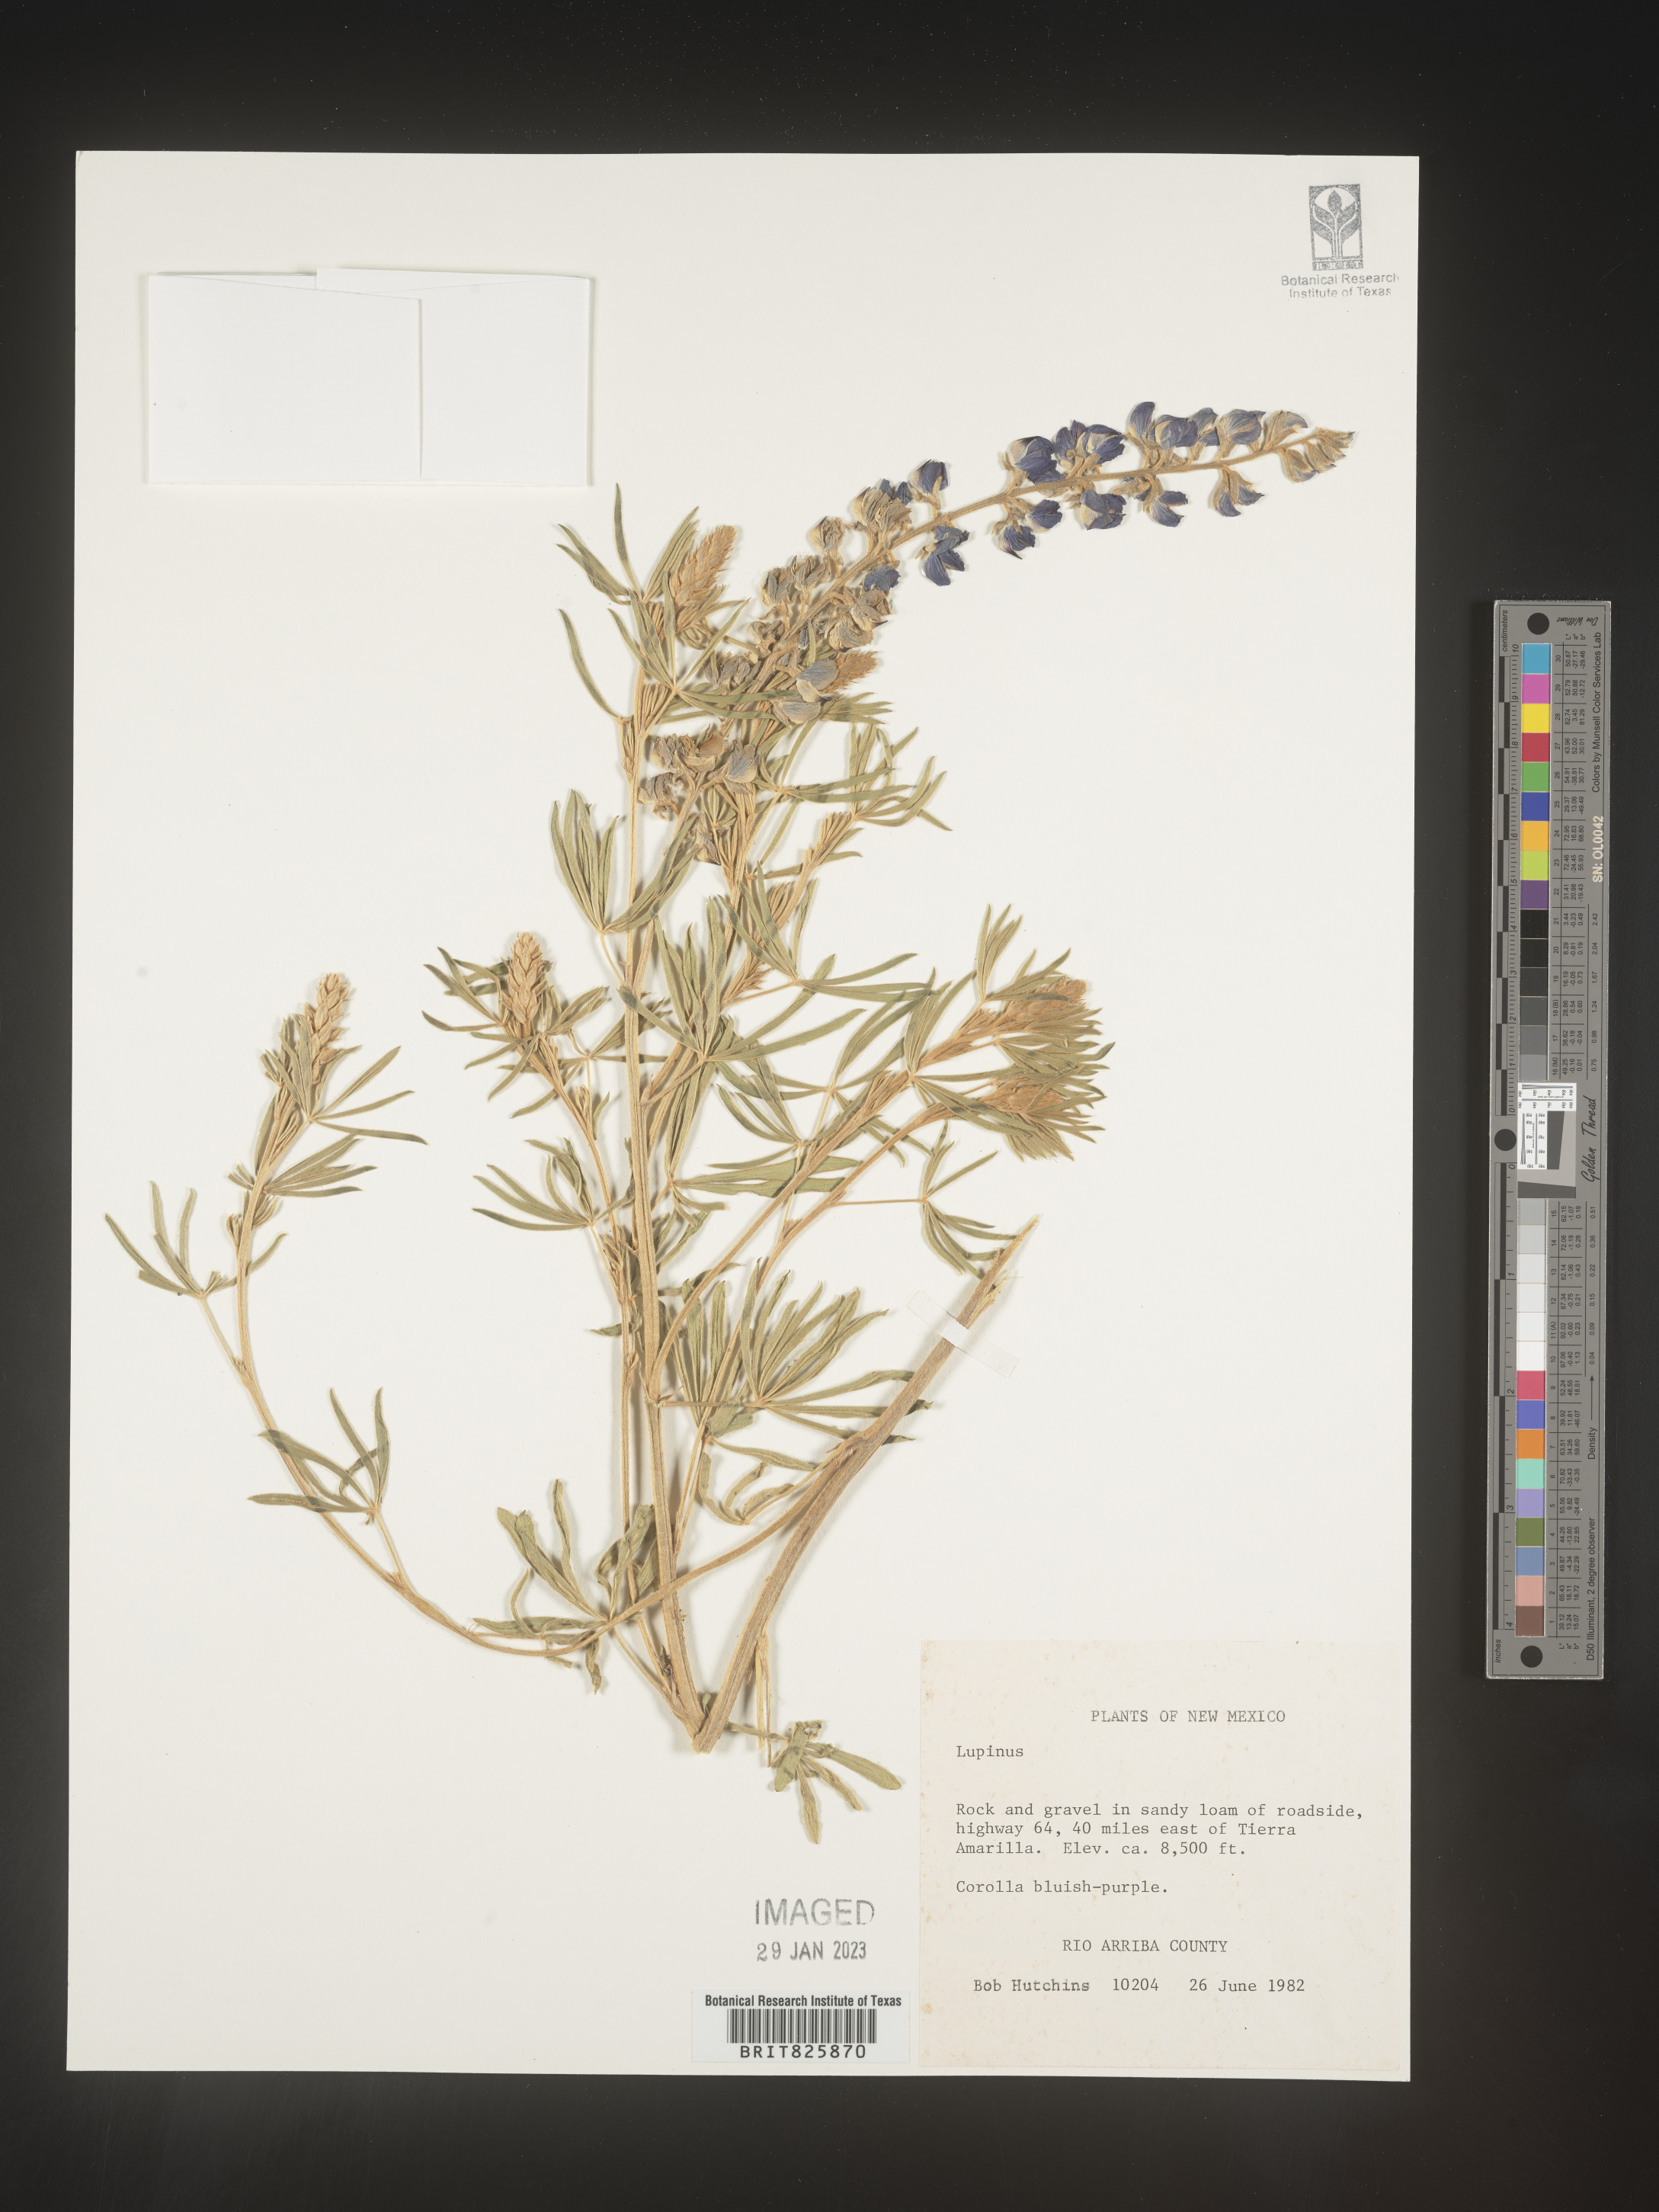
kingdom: Plantae
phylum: Tracheophyta
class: Magnoliopsida
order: Fabales
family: Fabaceae
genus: Lupinus
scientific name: Lupinus
